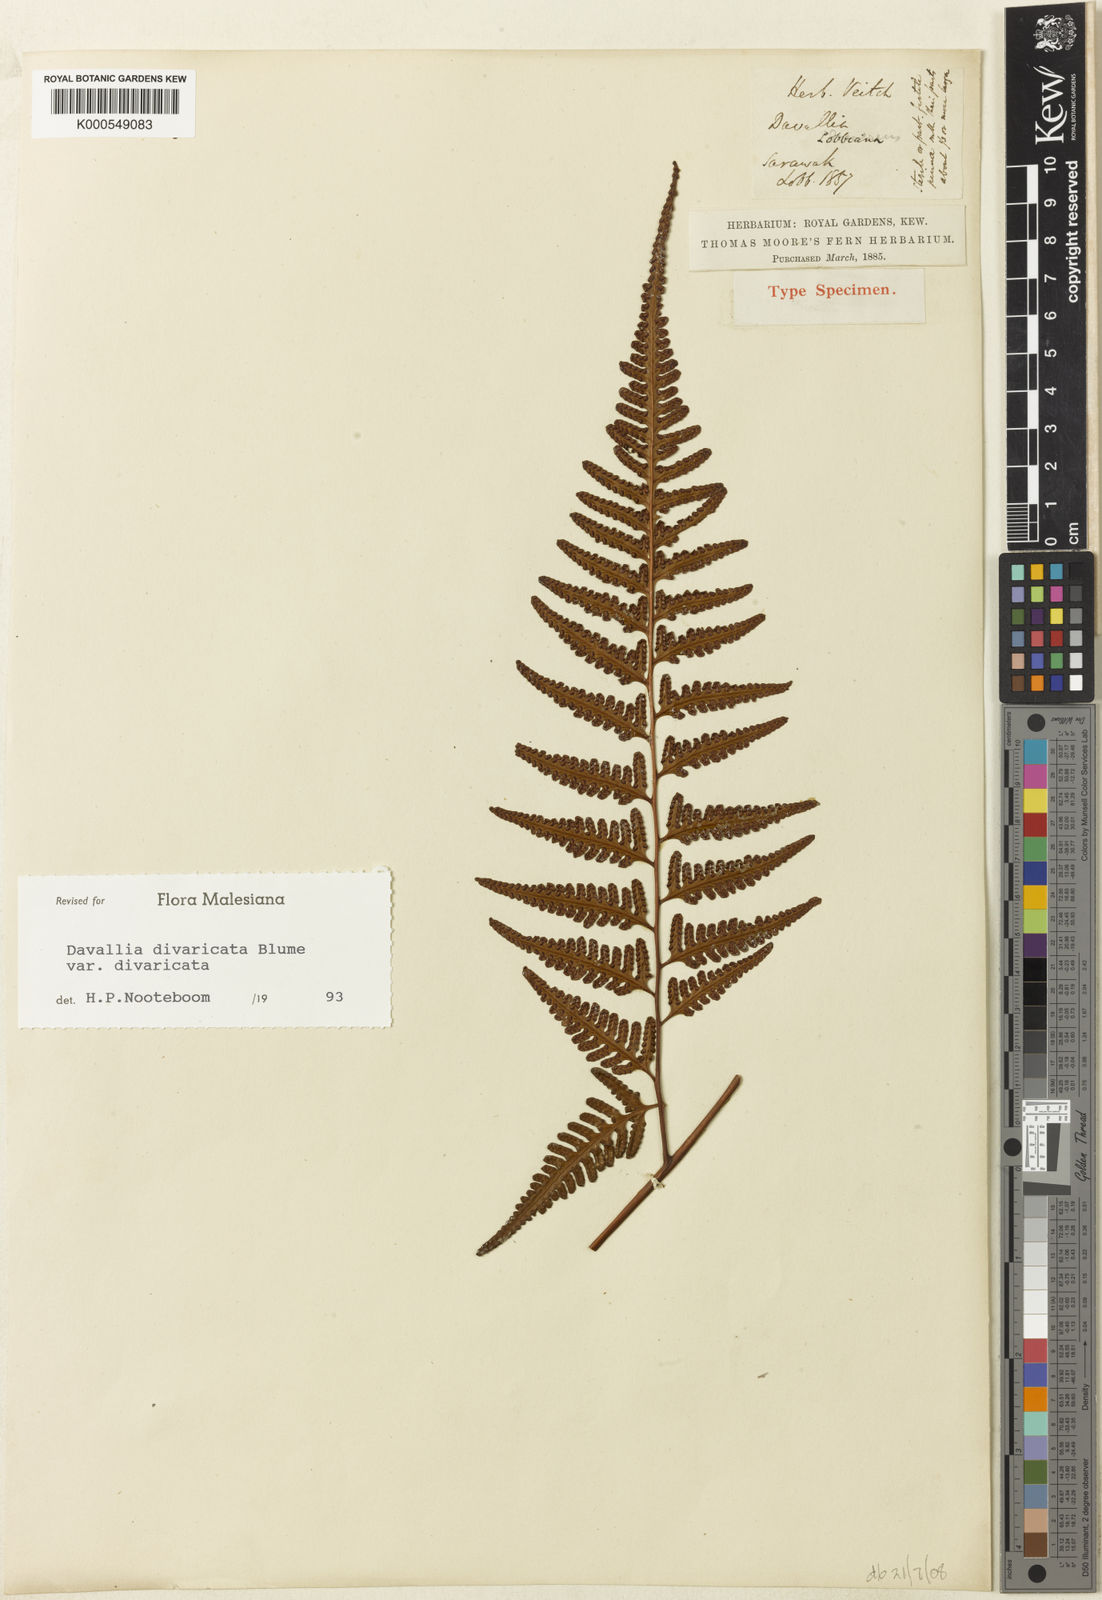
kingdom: Plantae
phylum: Tracheophyta
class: Polypodiopsida
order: Polypodiales
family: Davalliaceae
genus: Davallia
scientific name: Davallia divaricata
